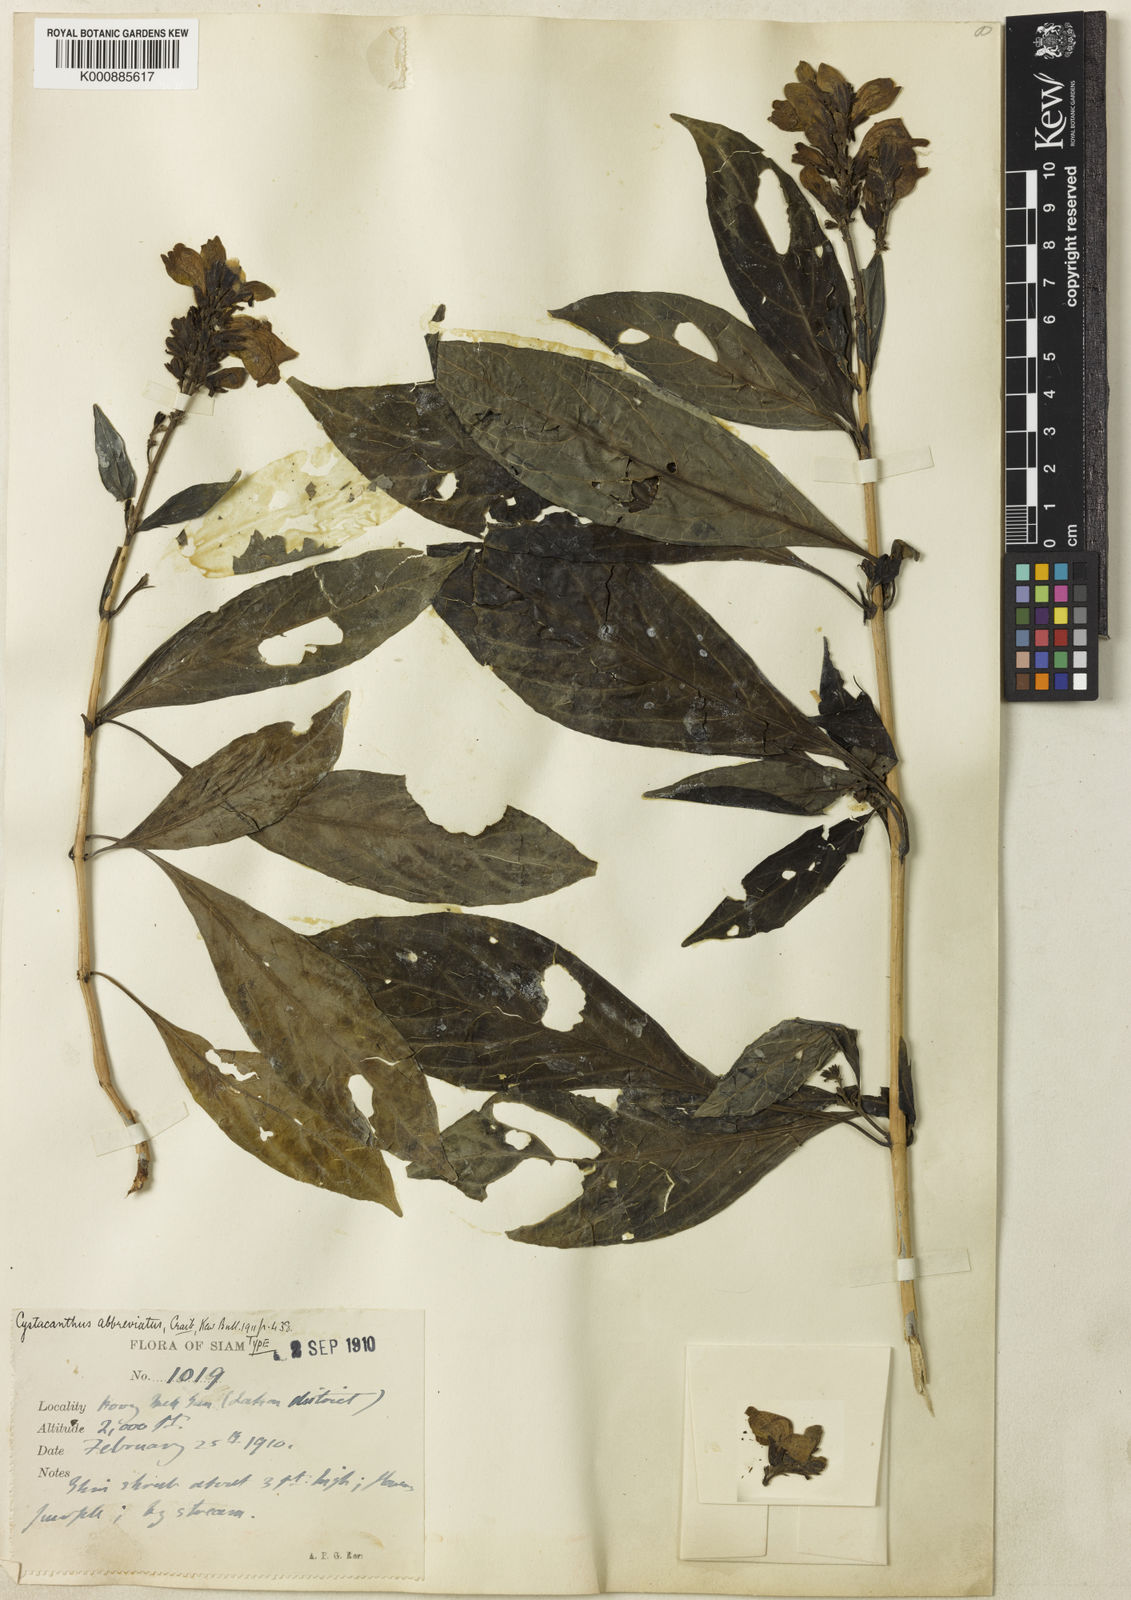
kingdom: Plantae
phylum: Tracheophyta
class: Magnoliopsida
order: Lamiales
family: Acanthaceae
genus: Phlogacanthus
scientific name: Phlogacanthus abbreviatus
